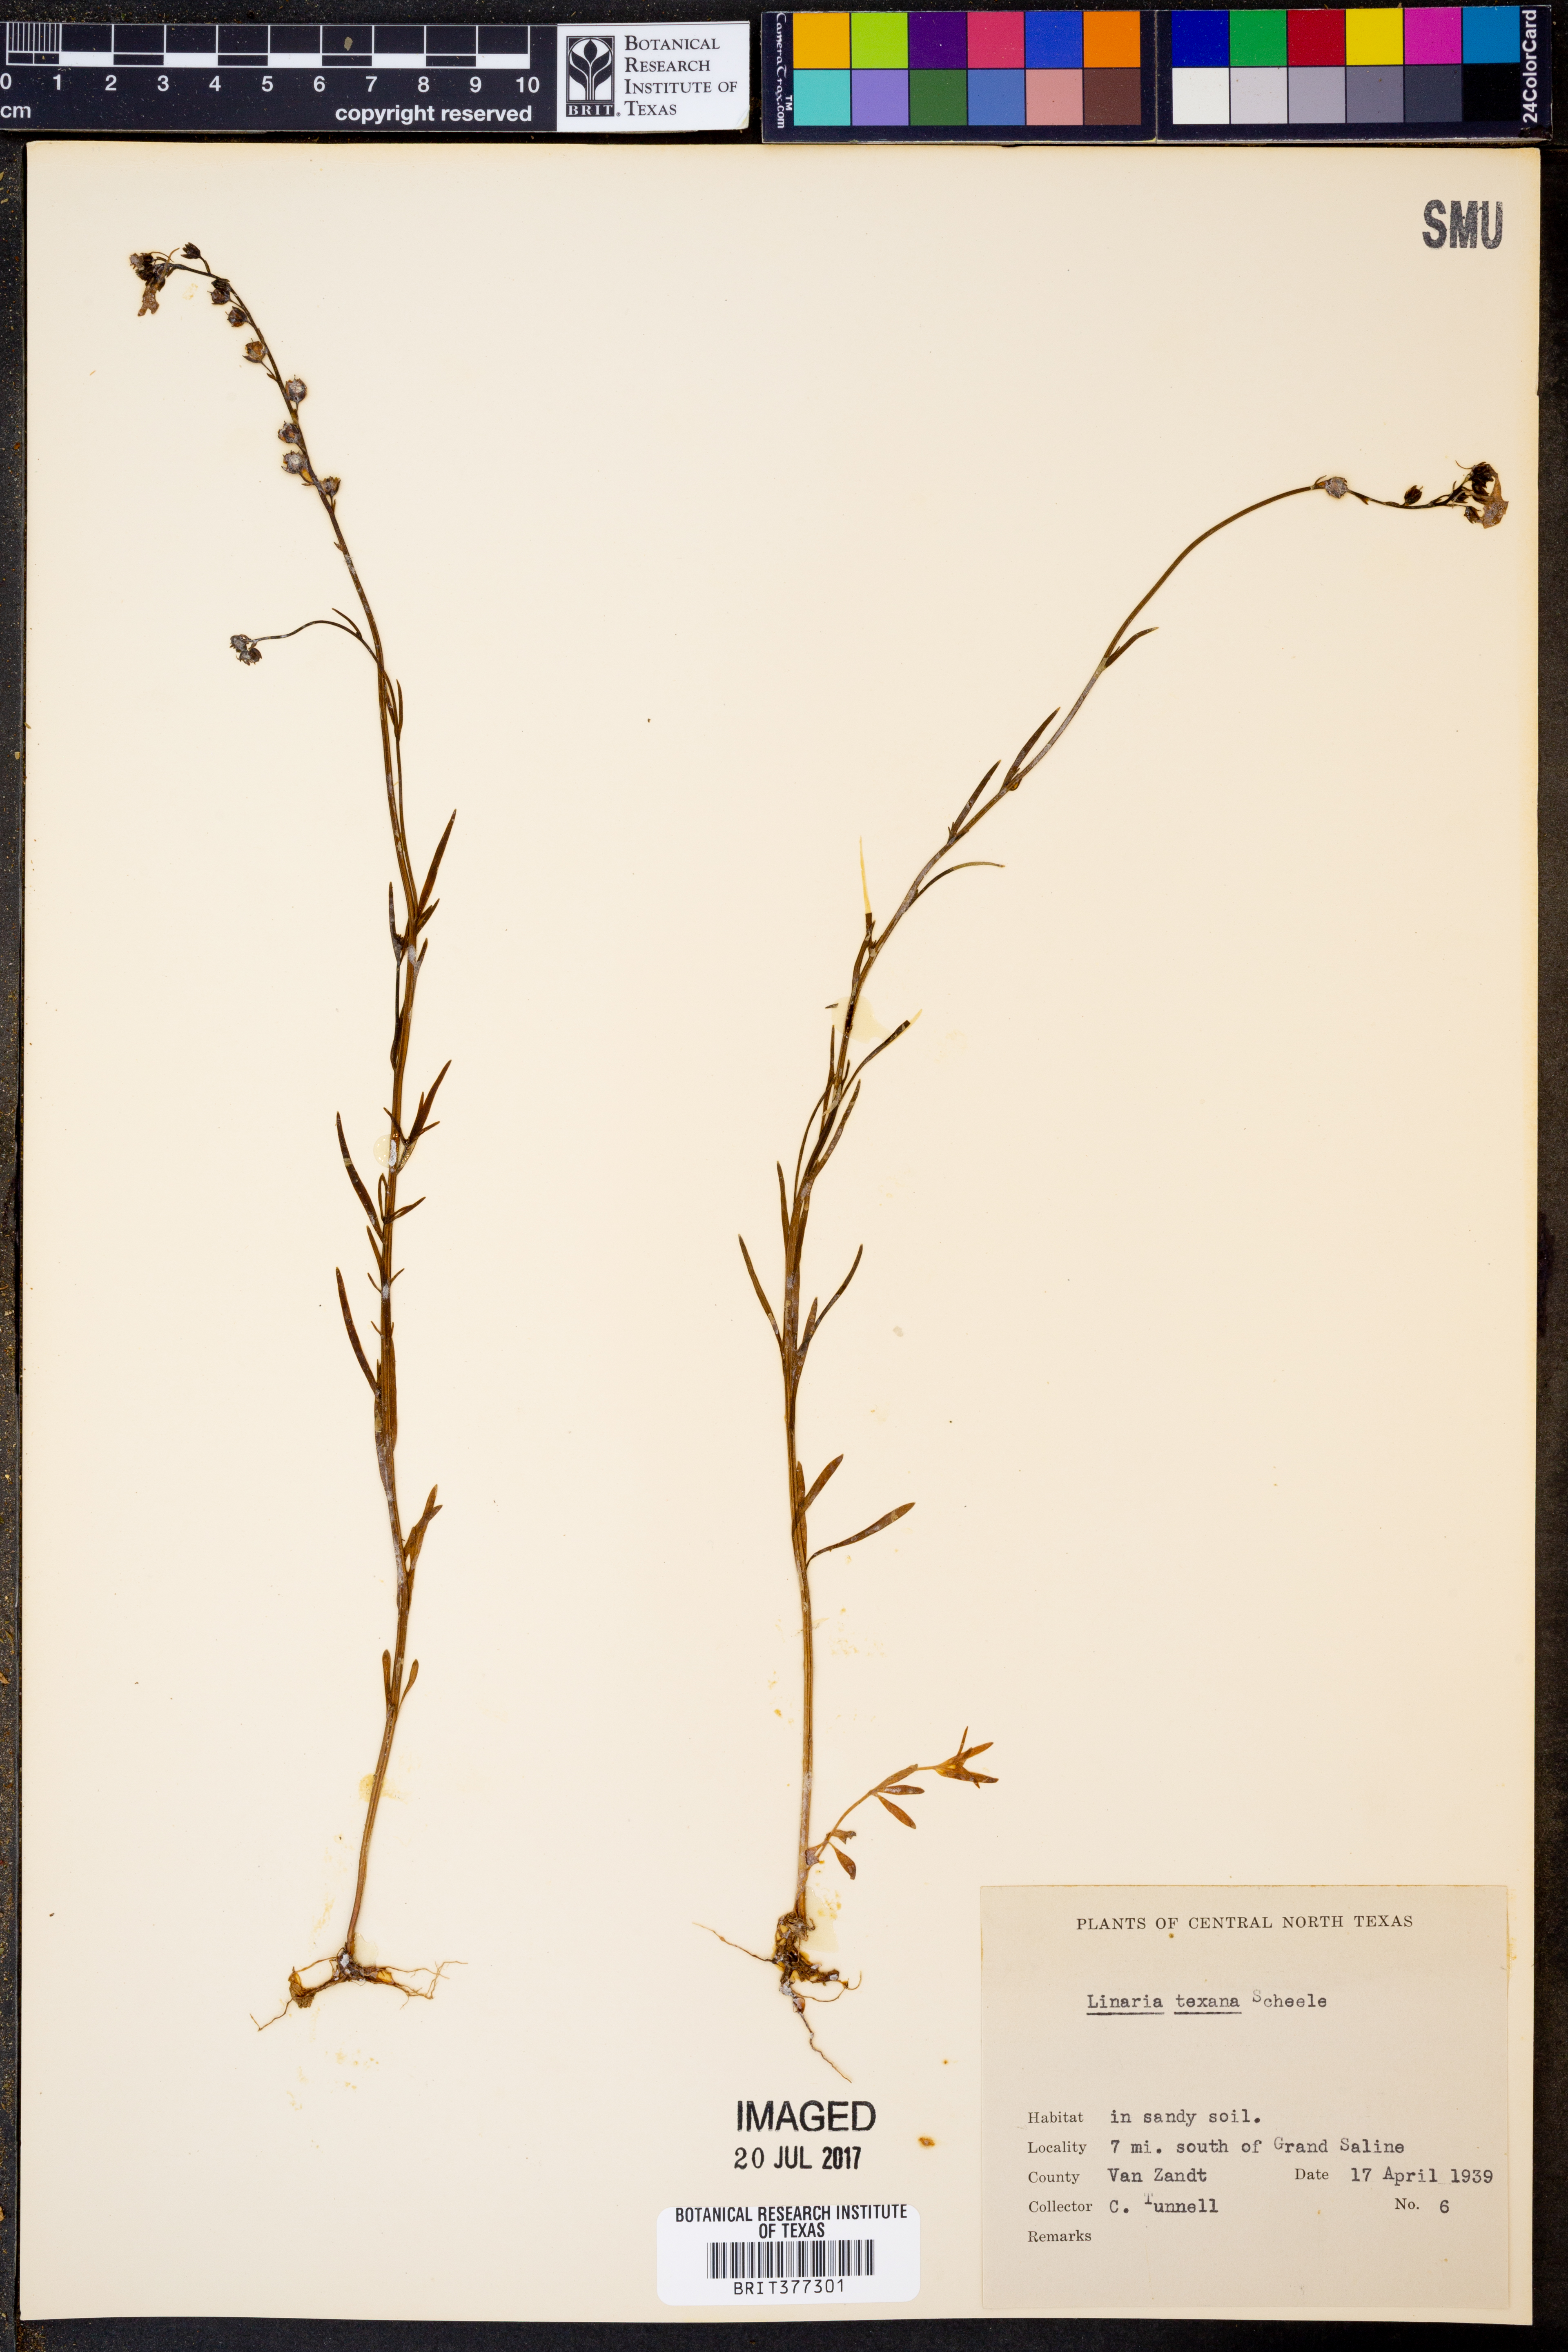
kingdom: Plantae
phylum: Tracheophyta
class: Magnoliopsida
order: Lamiales
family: Plantaginaceae
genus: Nuttallanthus
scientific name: Nuttallanthus texanus
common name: Texas toadflax
